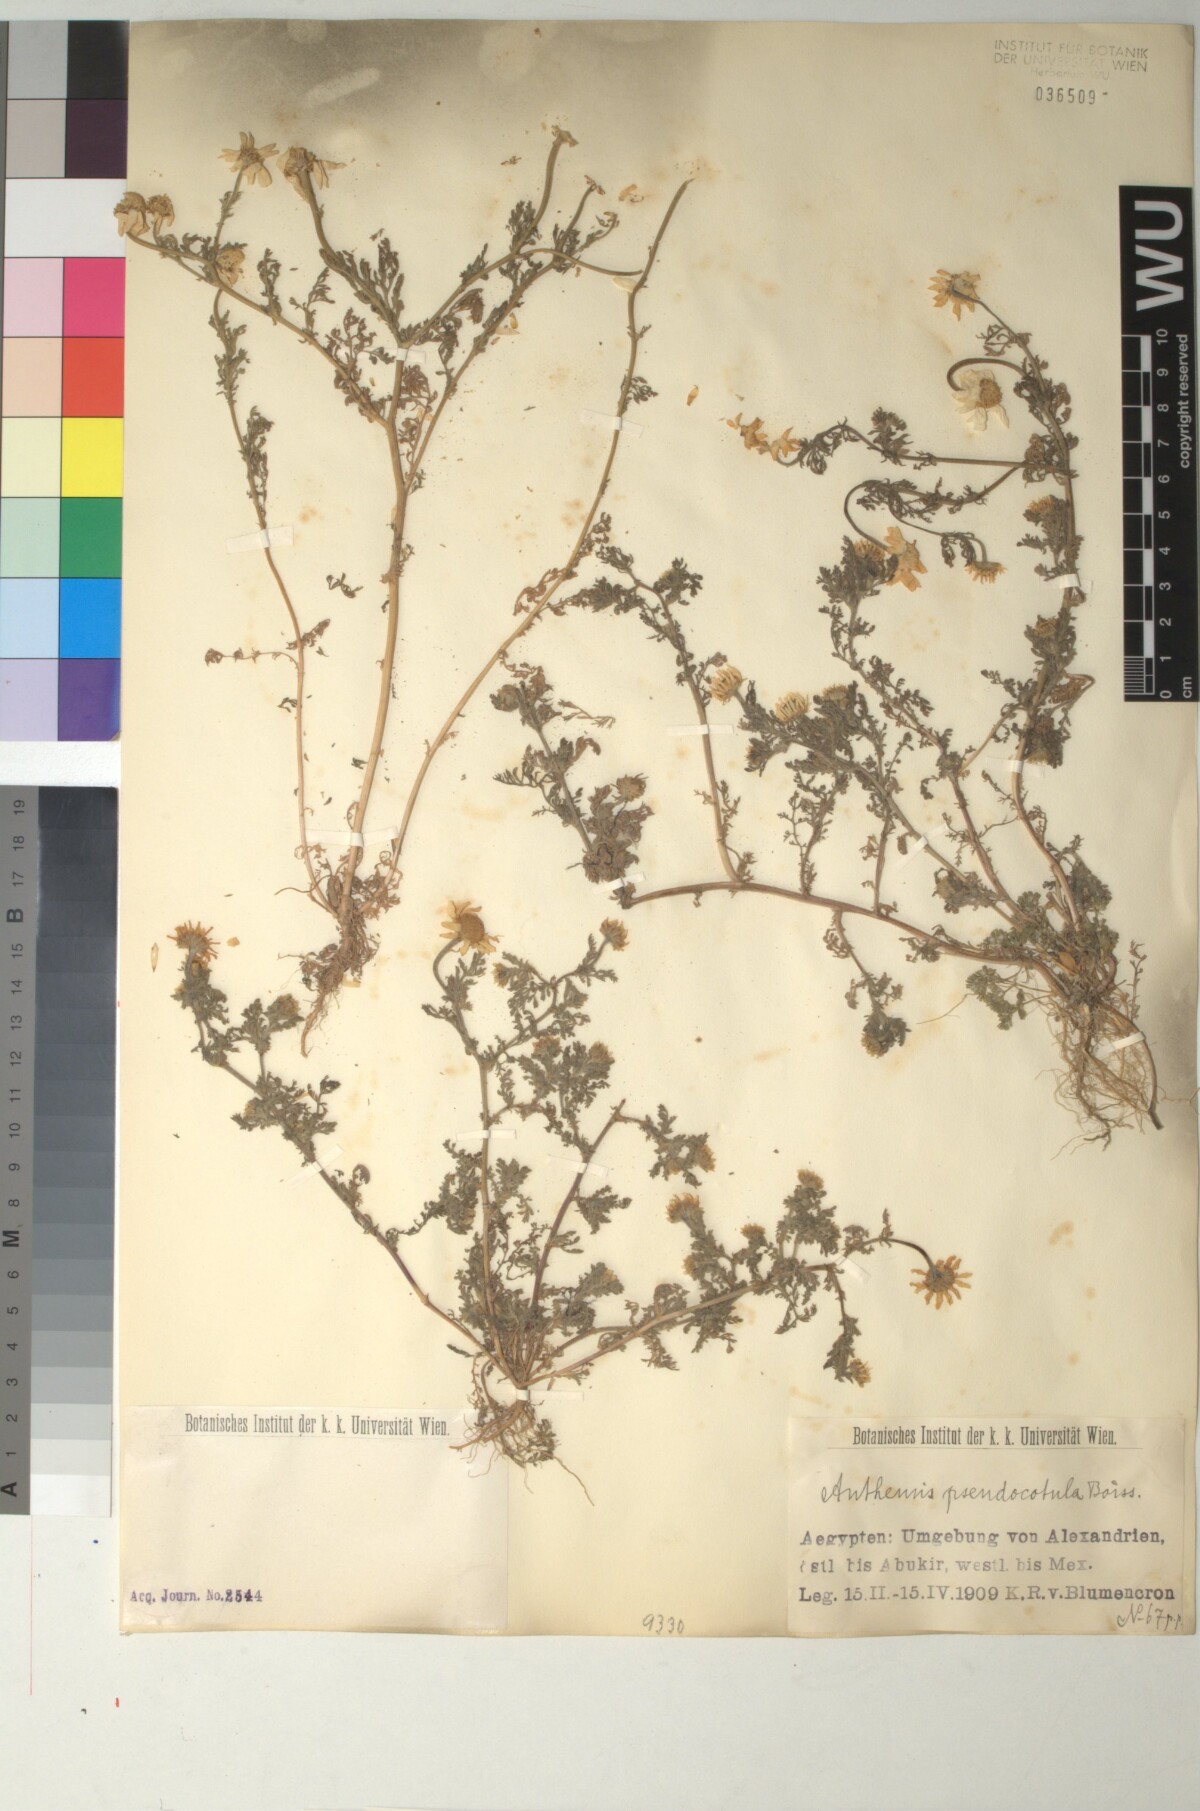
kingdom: Plantae
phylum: Tracheophyta
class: Magnoliopsida
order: Asterales
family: Asteraceae
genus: Anthemis
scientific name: Anthemis pseudocotula
